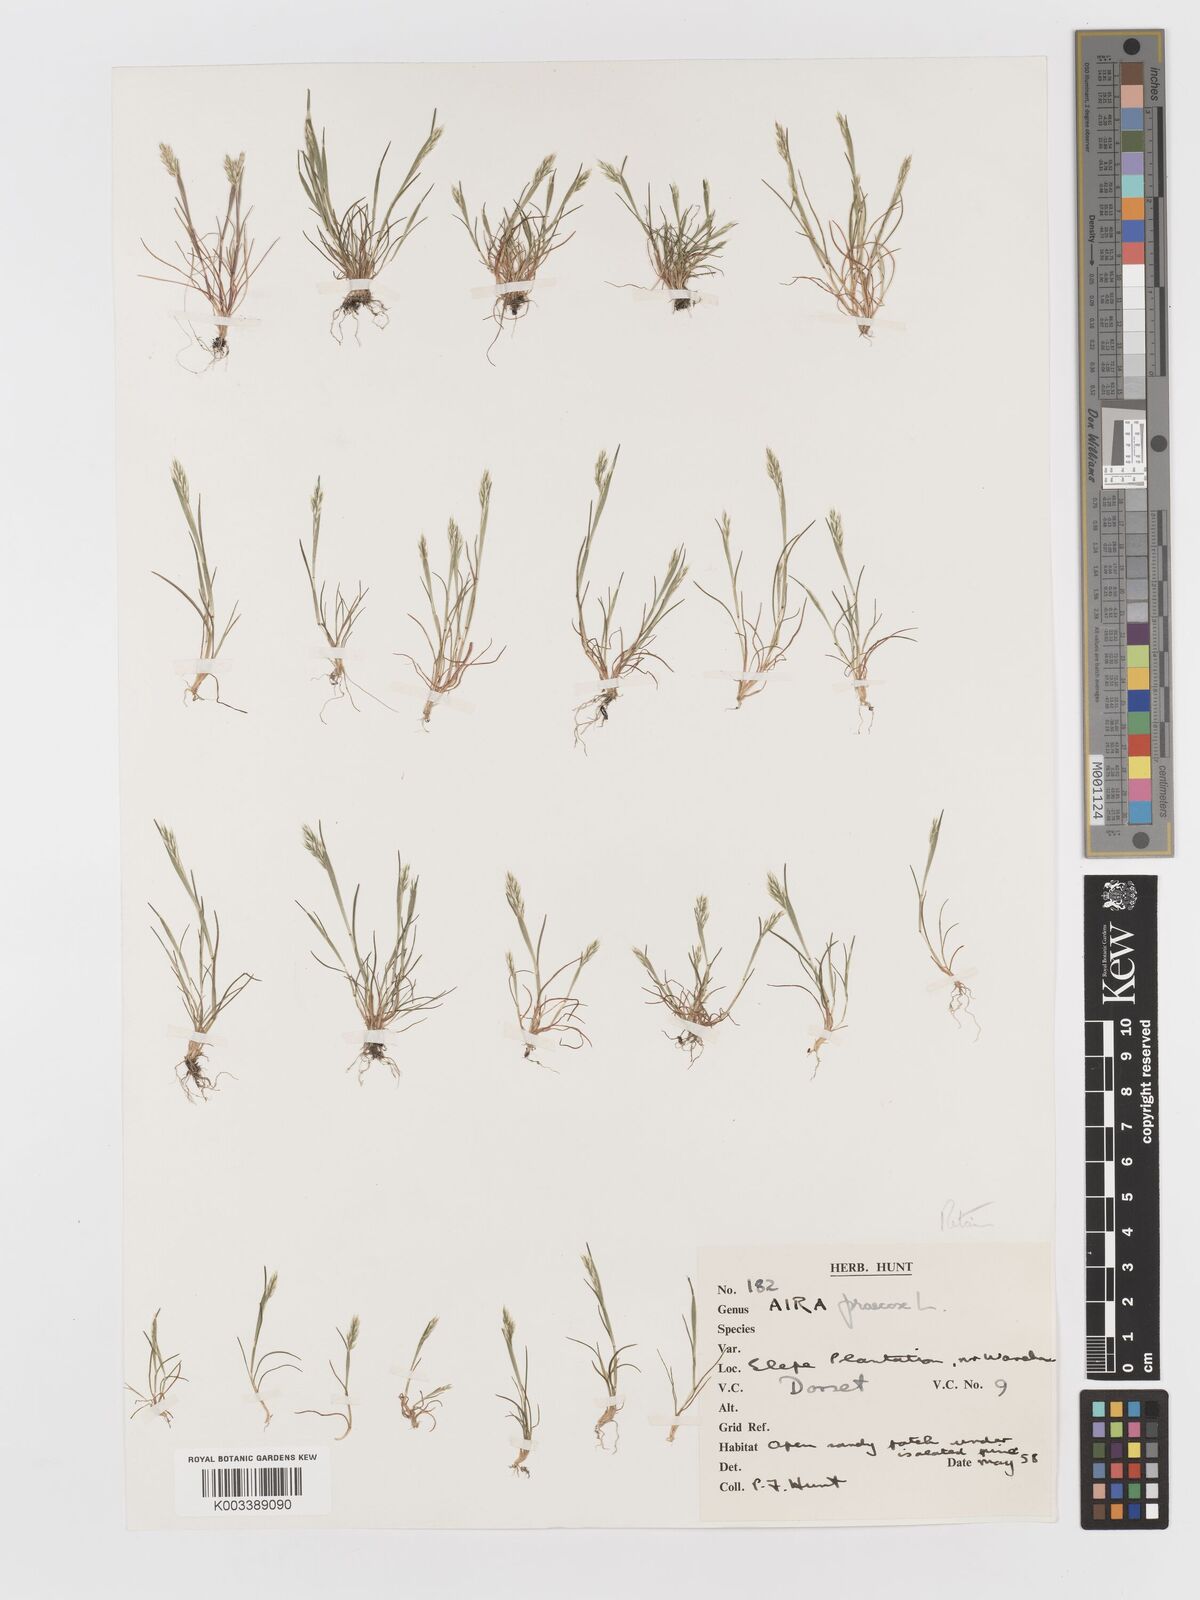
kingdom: Plantae
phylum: Tracheophyta
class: Liliopsida
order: Poales
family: Poaceae
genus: Aira
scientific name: Aira praecox
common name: Early hair-grass
